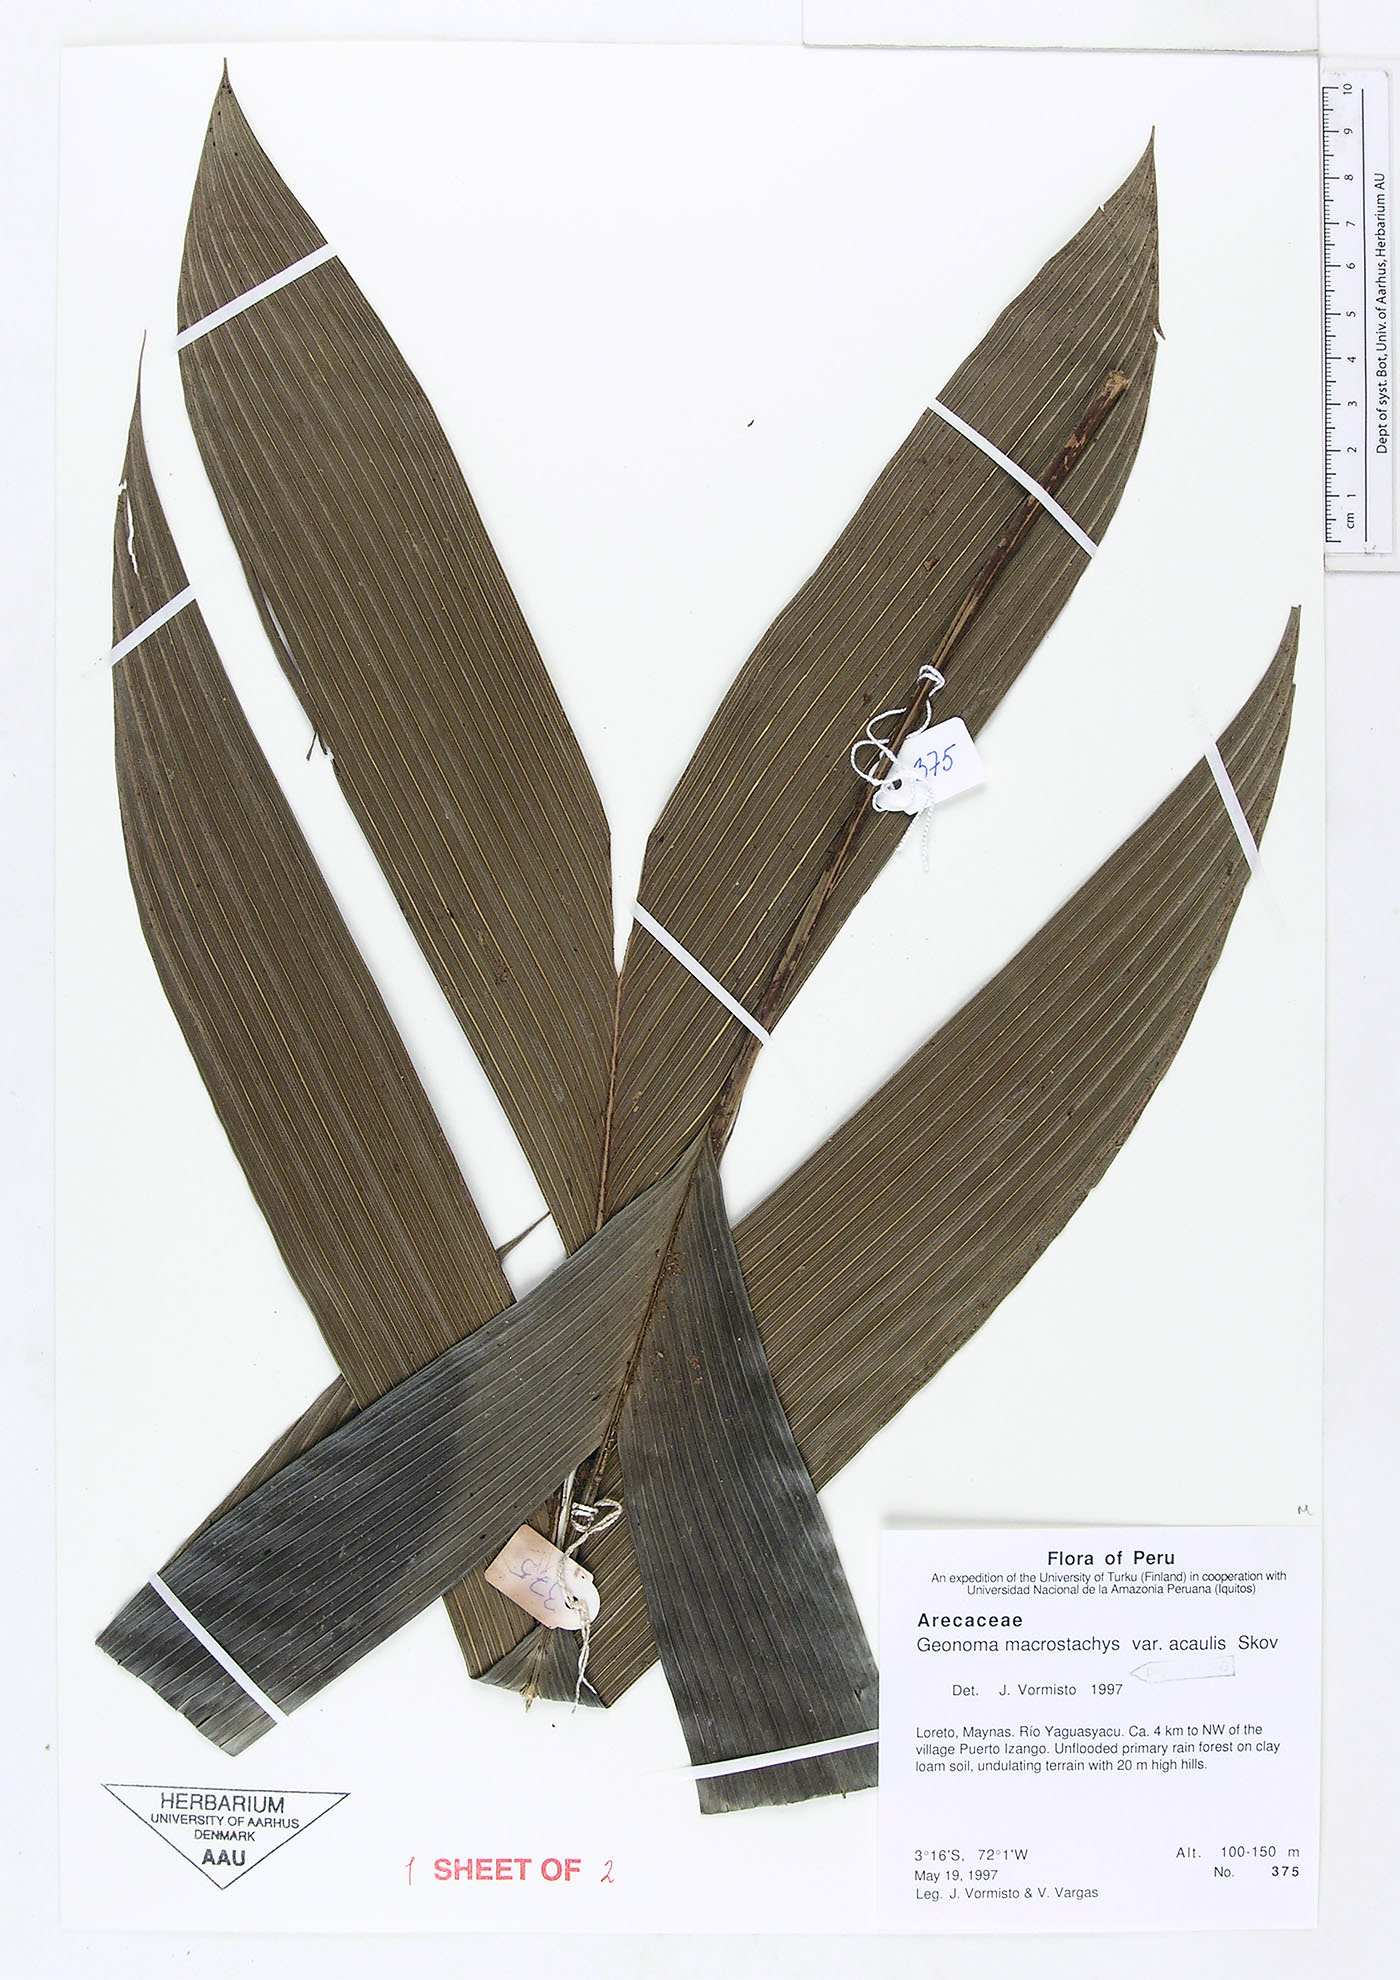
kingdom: Plantae
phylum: Tracheophyta
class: Liliopsida
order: Arecales
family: Arecaceae
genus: Geonoma
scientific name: Geonoma macrostachys
